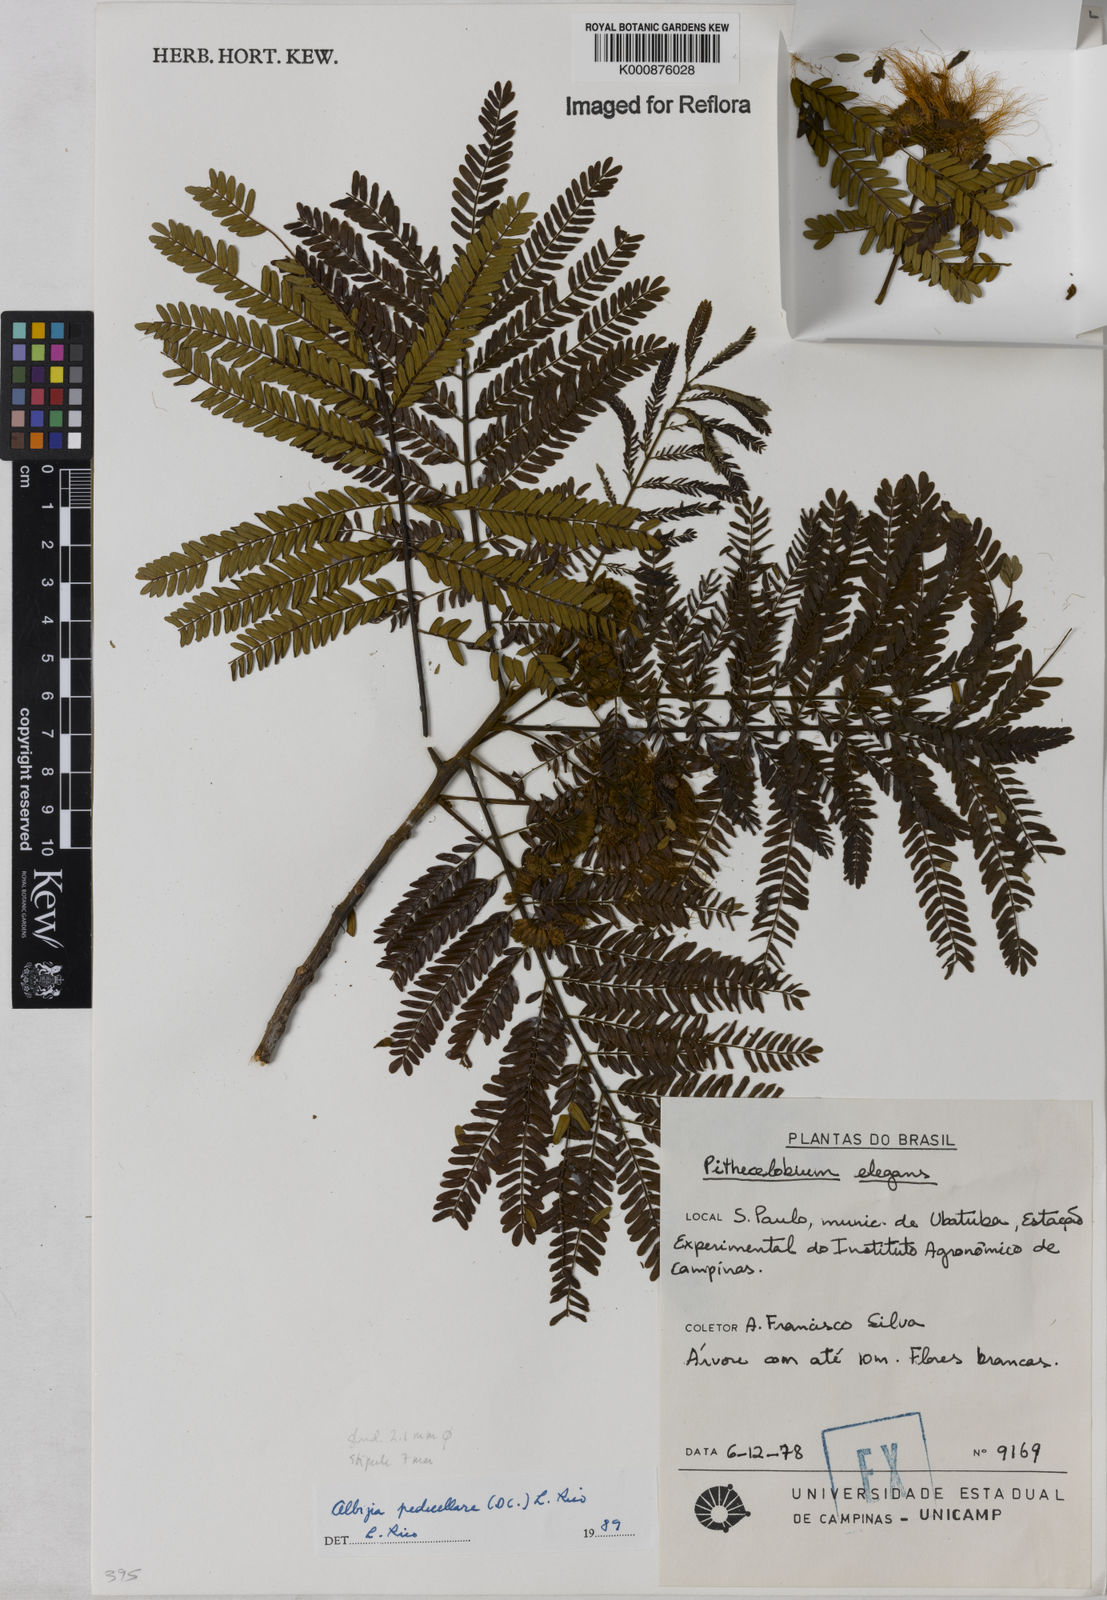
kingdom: Plantae
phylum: Tracheophyta
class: Magnoliopsida
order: Fabales
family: Fabaceae
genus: Balizia
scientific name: Balizia pedicellaris
